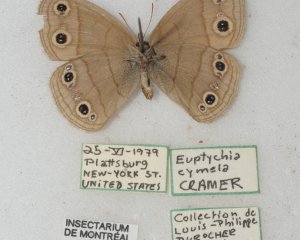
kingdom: Animalia
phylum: Arthropoda
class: Insecta
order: Lepidoptera
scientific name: Lepidoptera
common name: Butterflies
